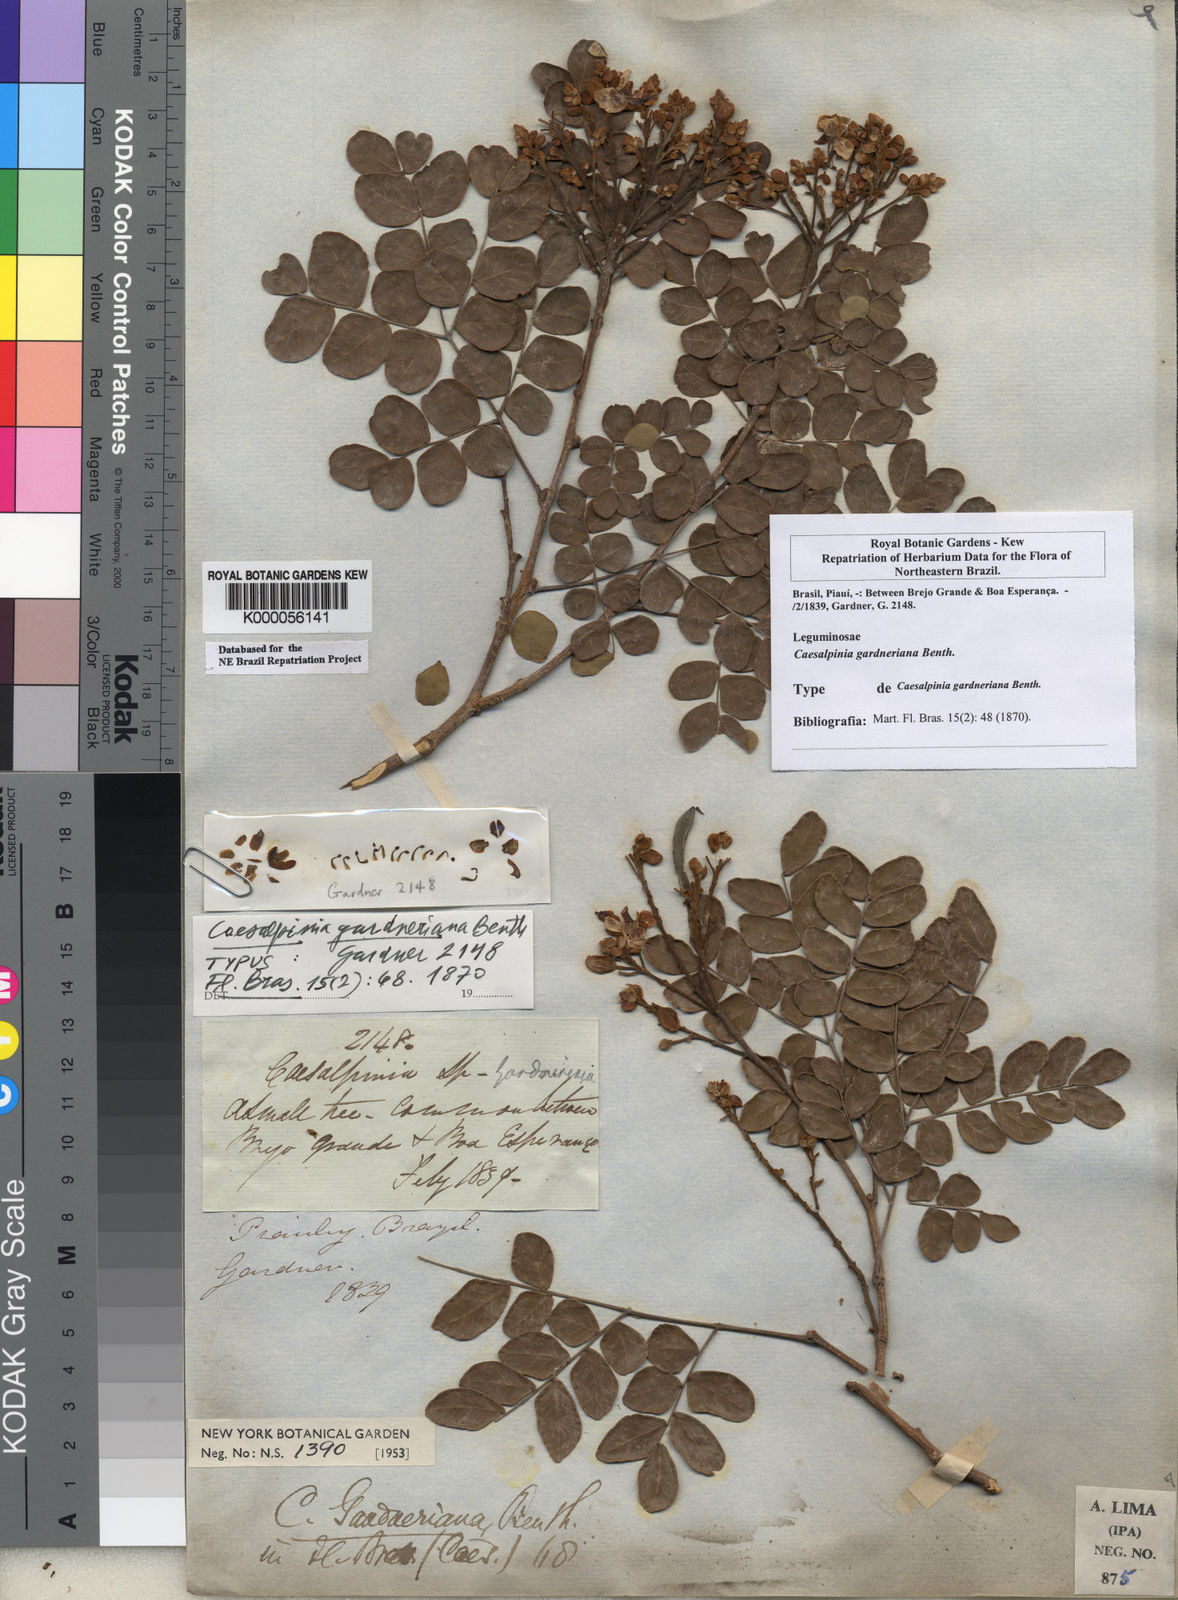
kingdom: Plantae
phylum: Tracheophyta
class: Magnoliopsida
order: Fabales
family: Fabaceae
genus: Cenostigma
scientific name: Cenostigma nordestinum
